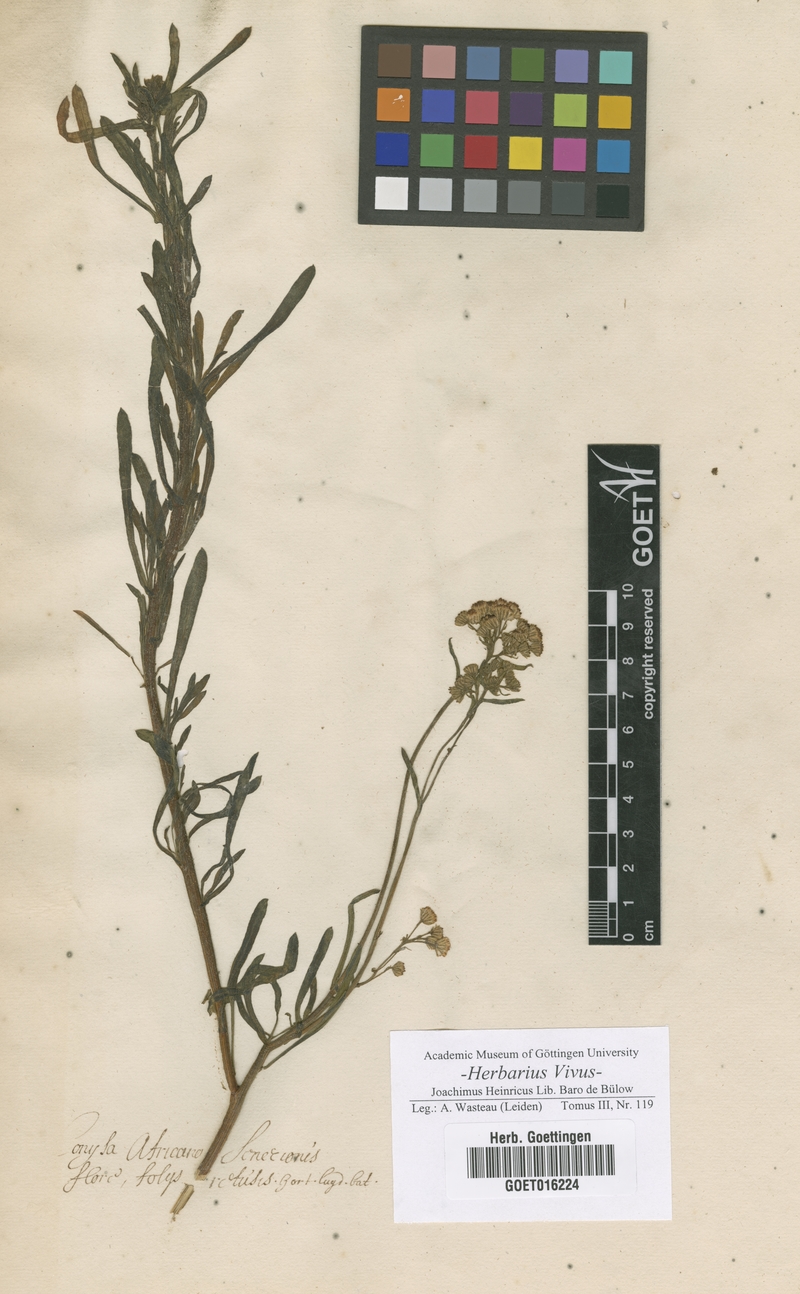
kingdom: Plantae
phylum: Tracheophyta
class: Magnoliopsida
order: Asterales
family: Asteraceae
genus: Conyza
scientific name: Conyza
